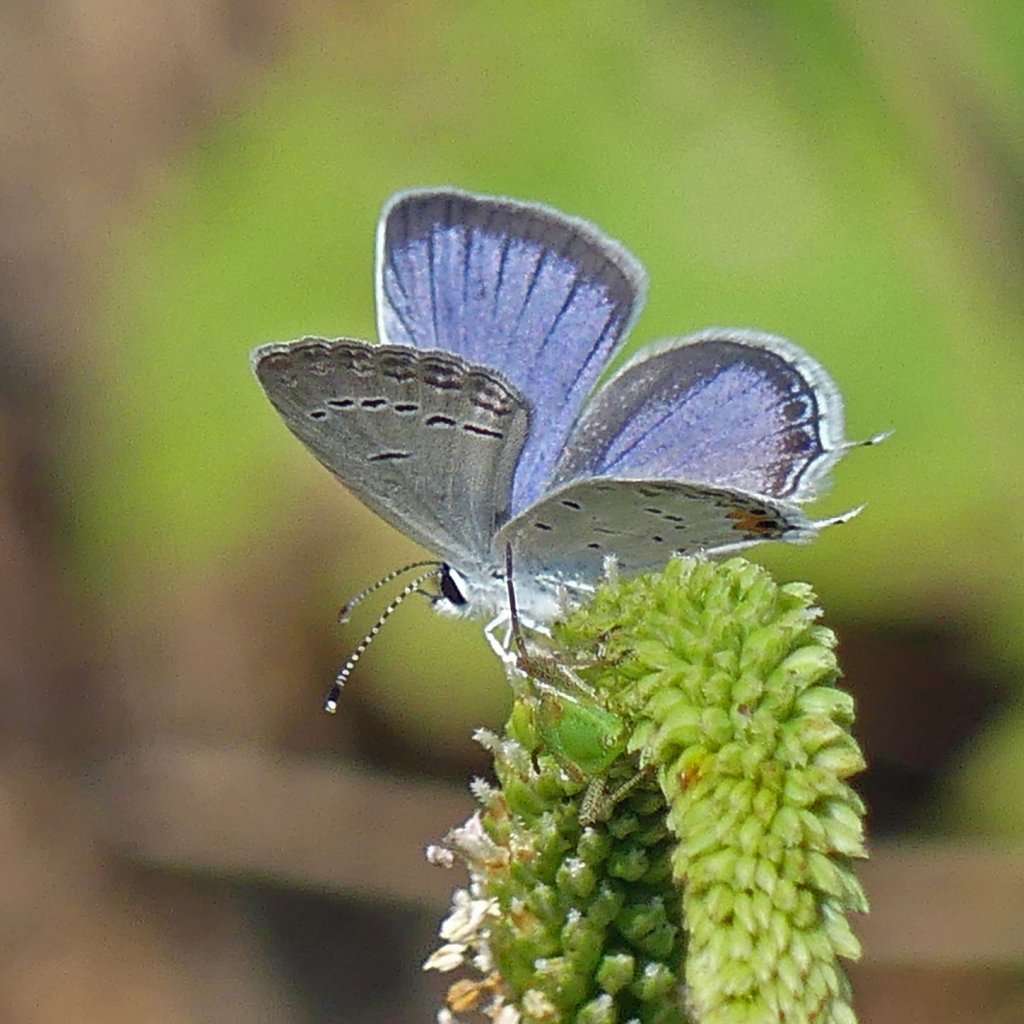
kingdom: Animalia
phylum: Arthropoda
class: Insecta
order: Lepidoptera
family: Lycaenidae
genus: Elkalyce
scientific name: Elkalyce comyntas
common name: Eastern Tailed-Blue
